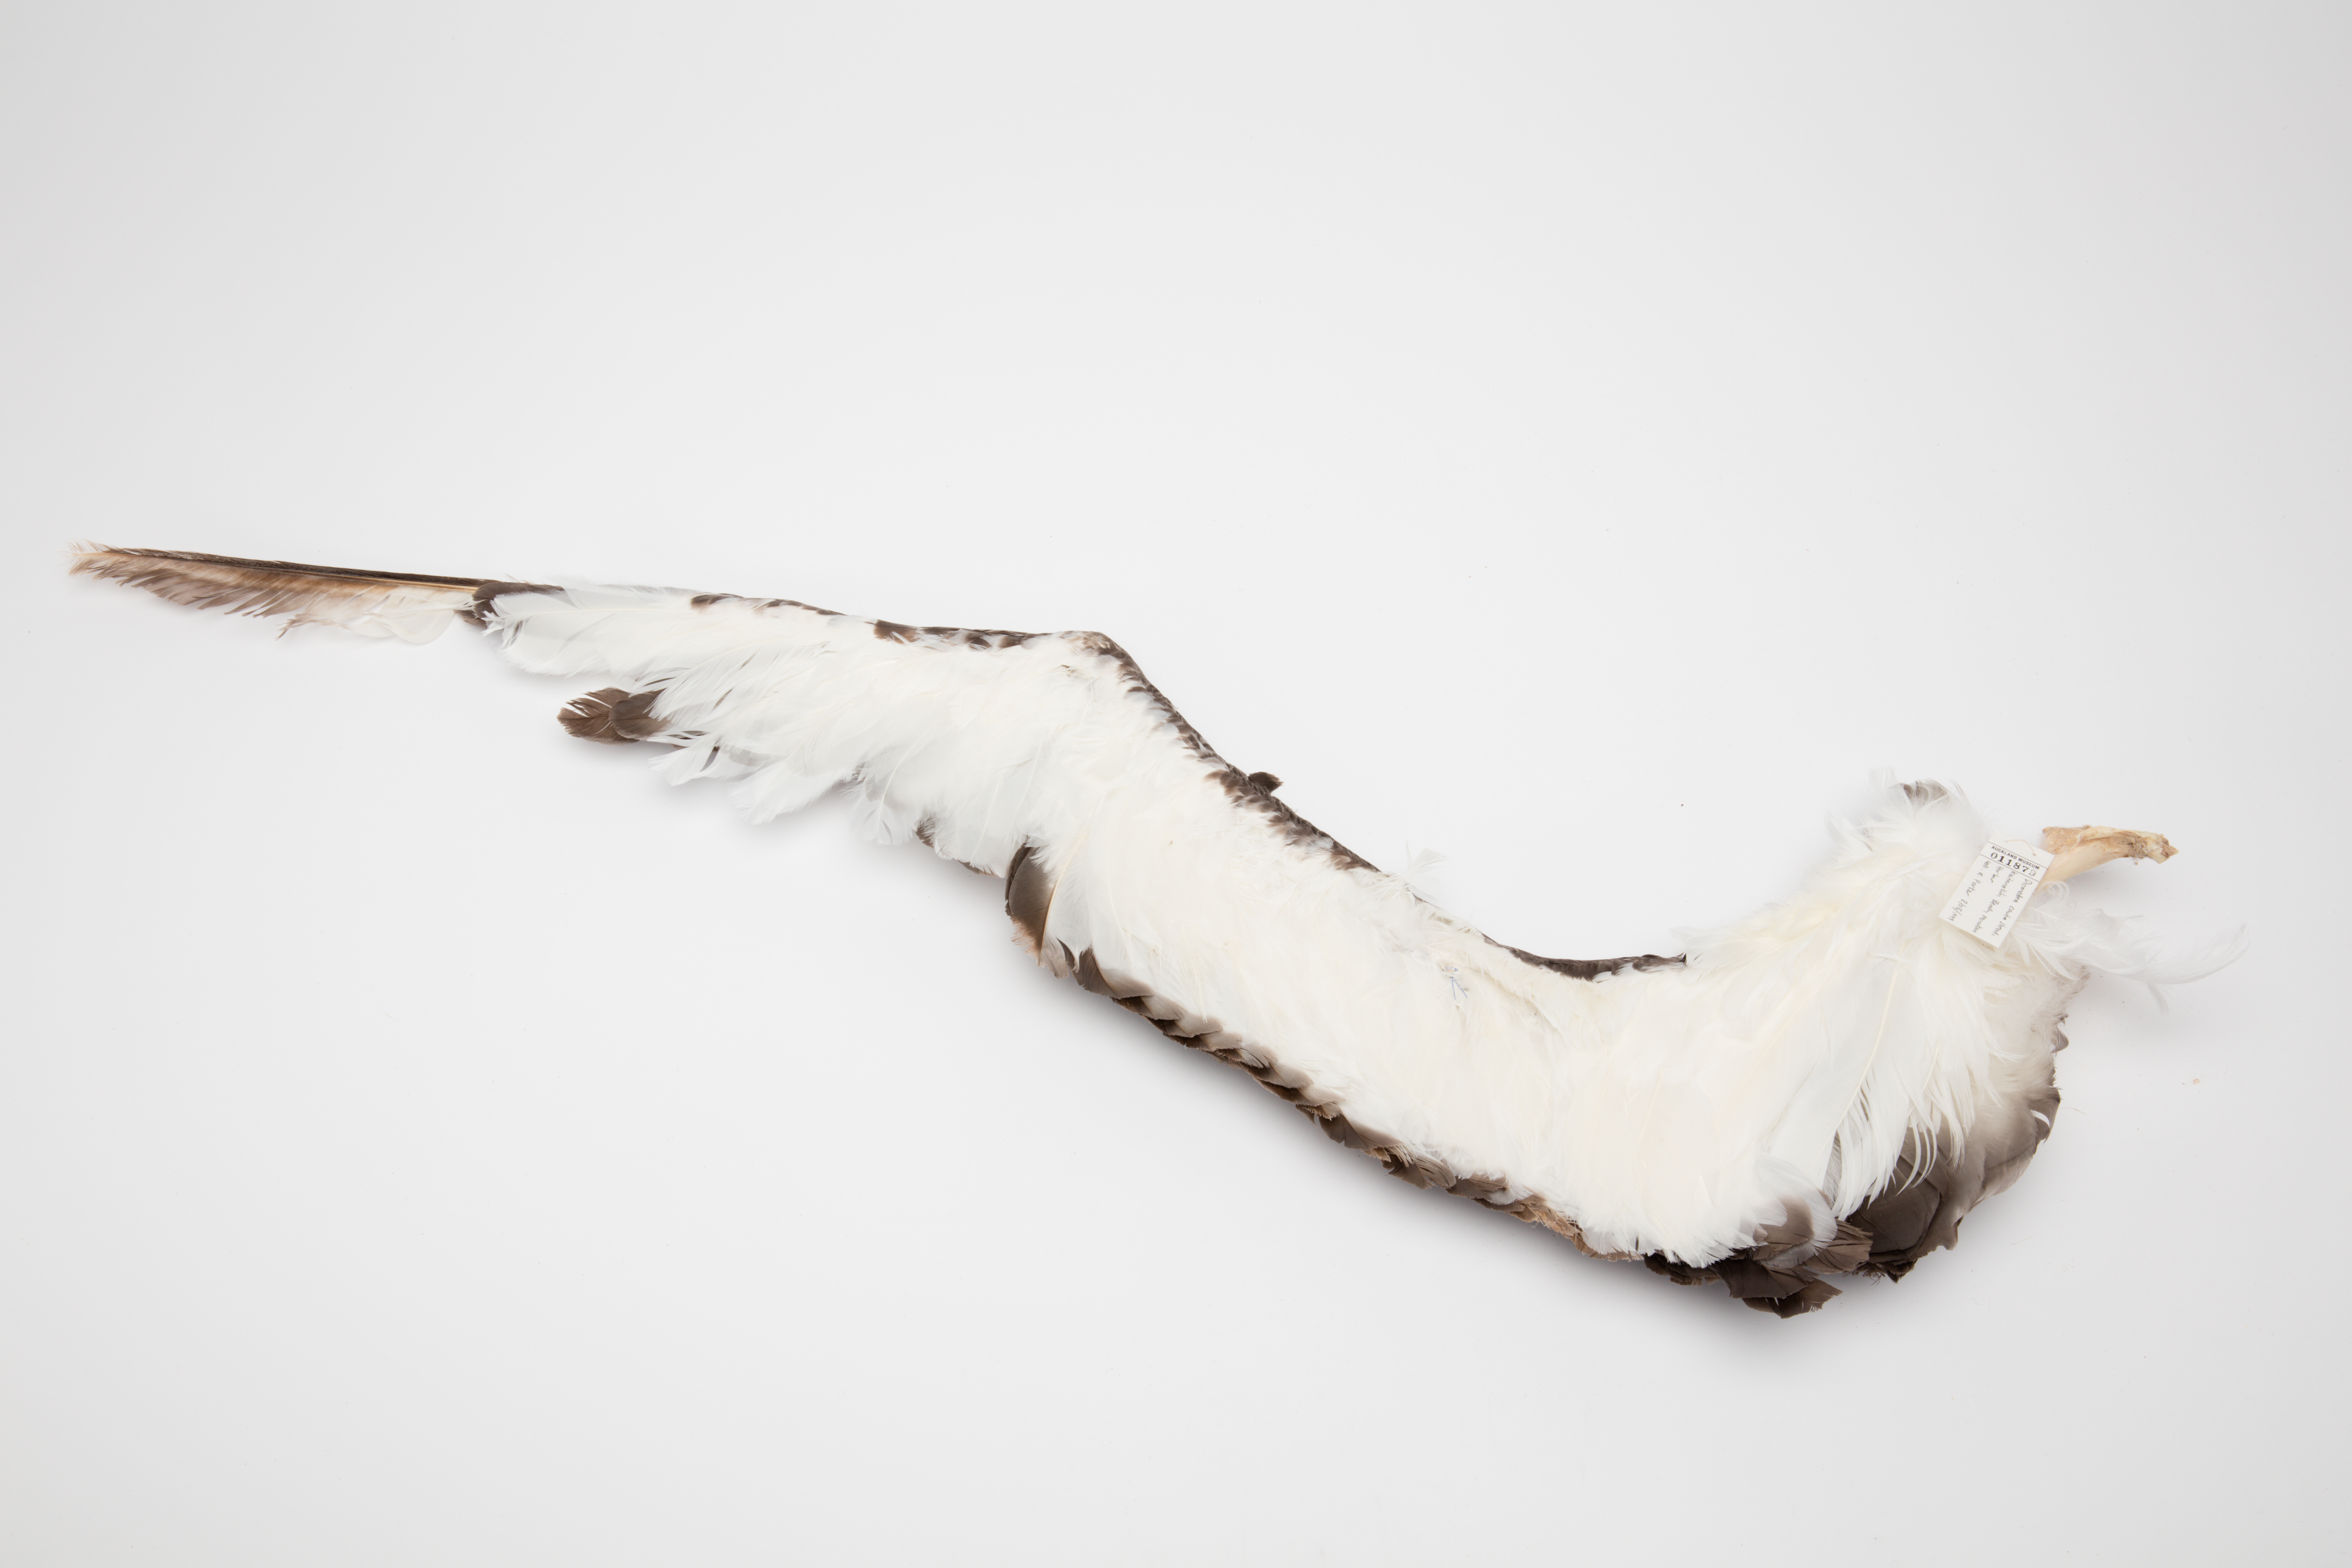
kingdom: Animalia
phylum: Chordata
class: Aves
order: Procellariiformes
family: Diomedeidae
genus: Thalassarche
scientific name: Thalassarche cauta
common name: Shy albatross
